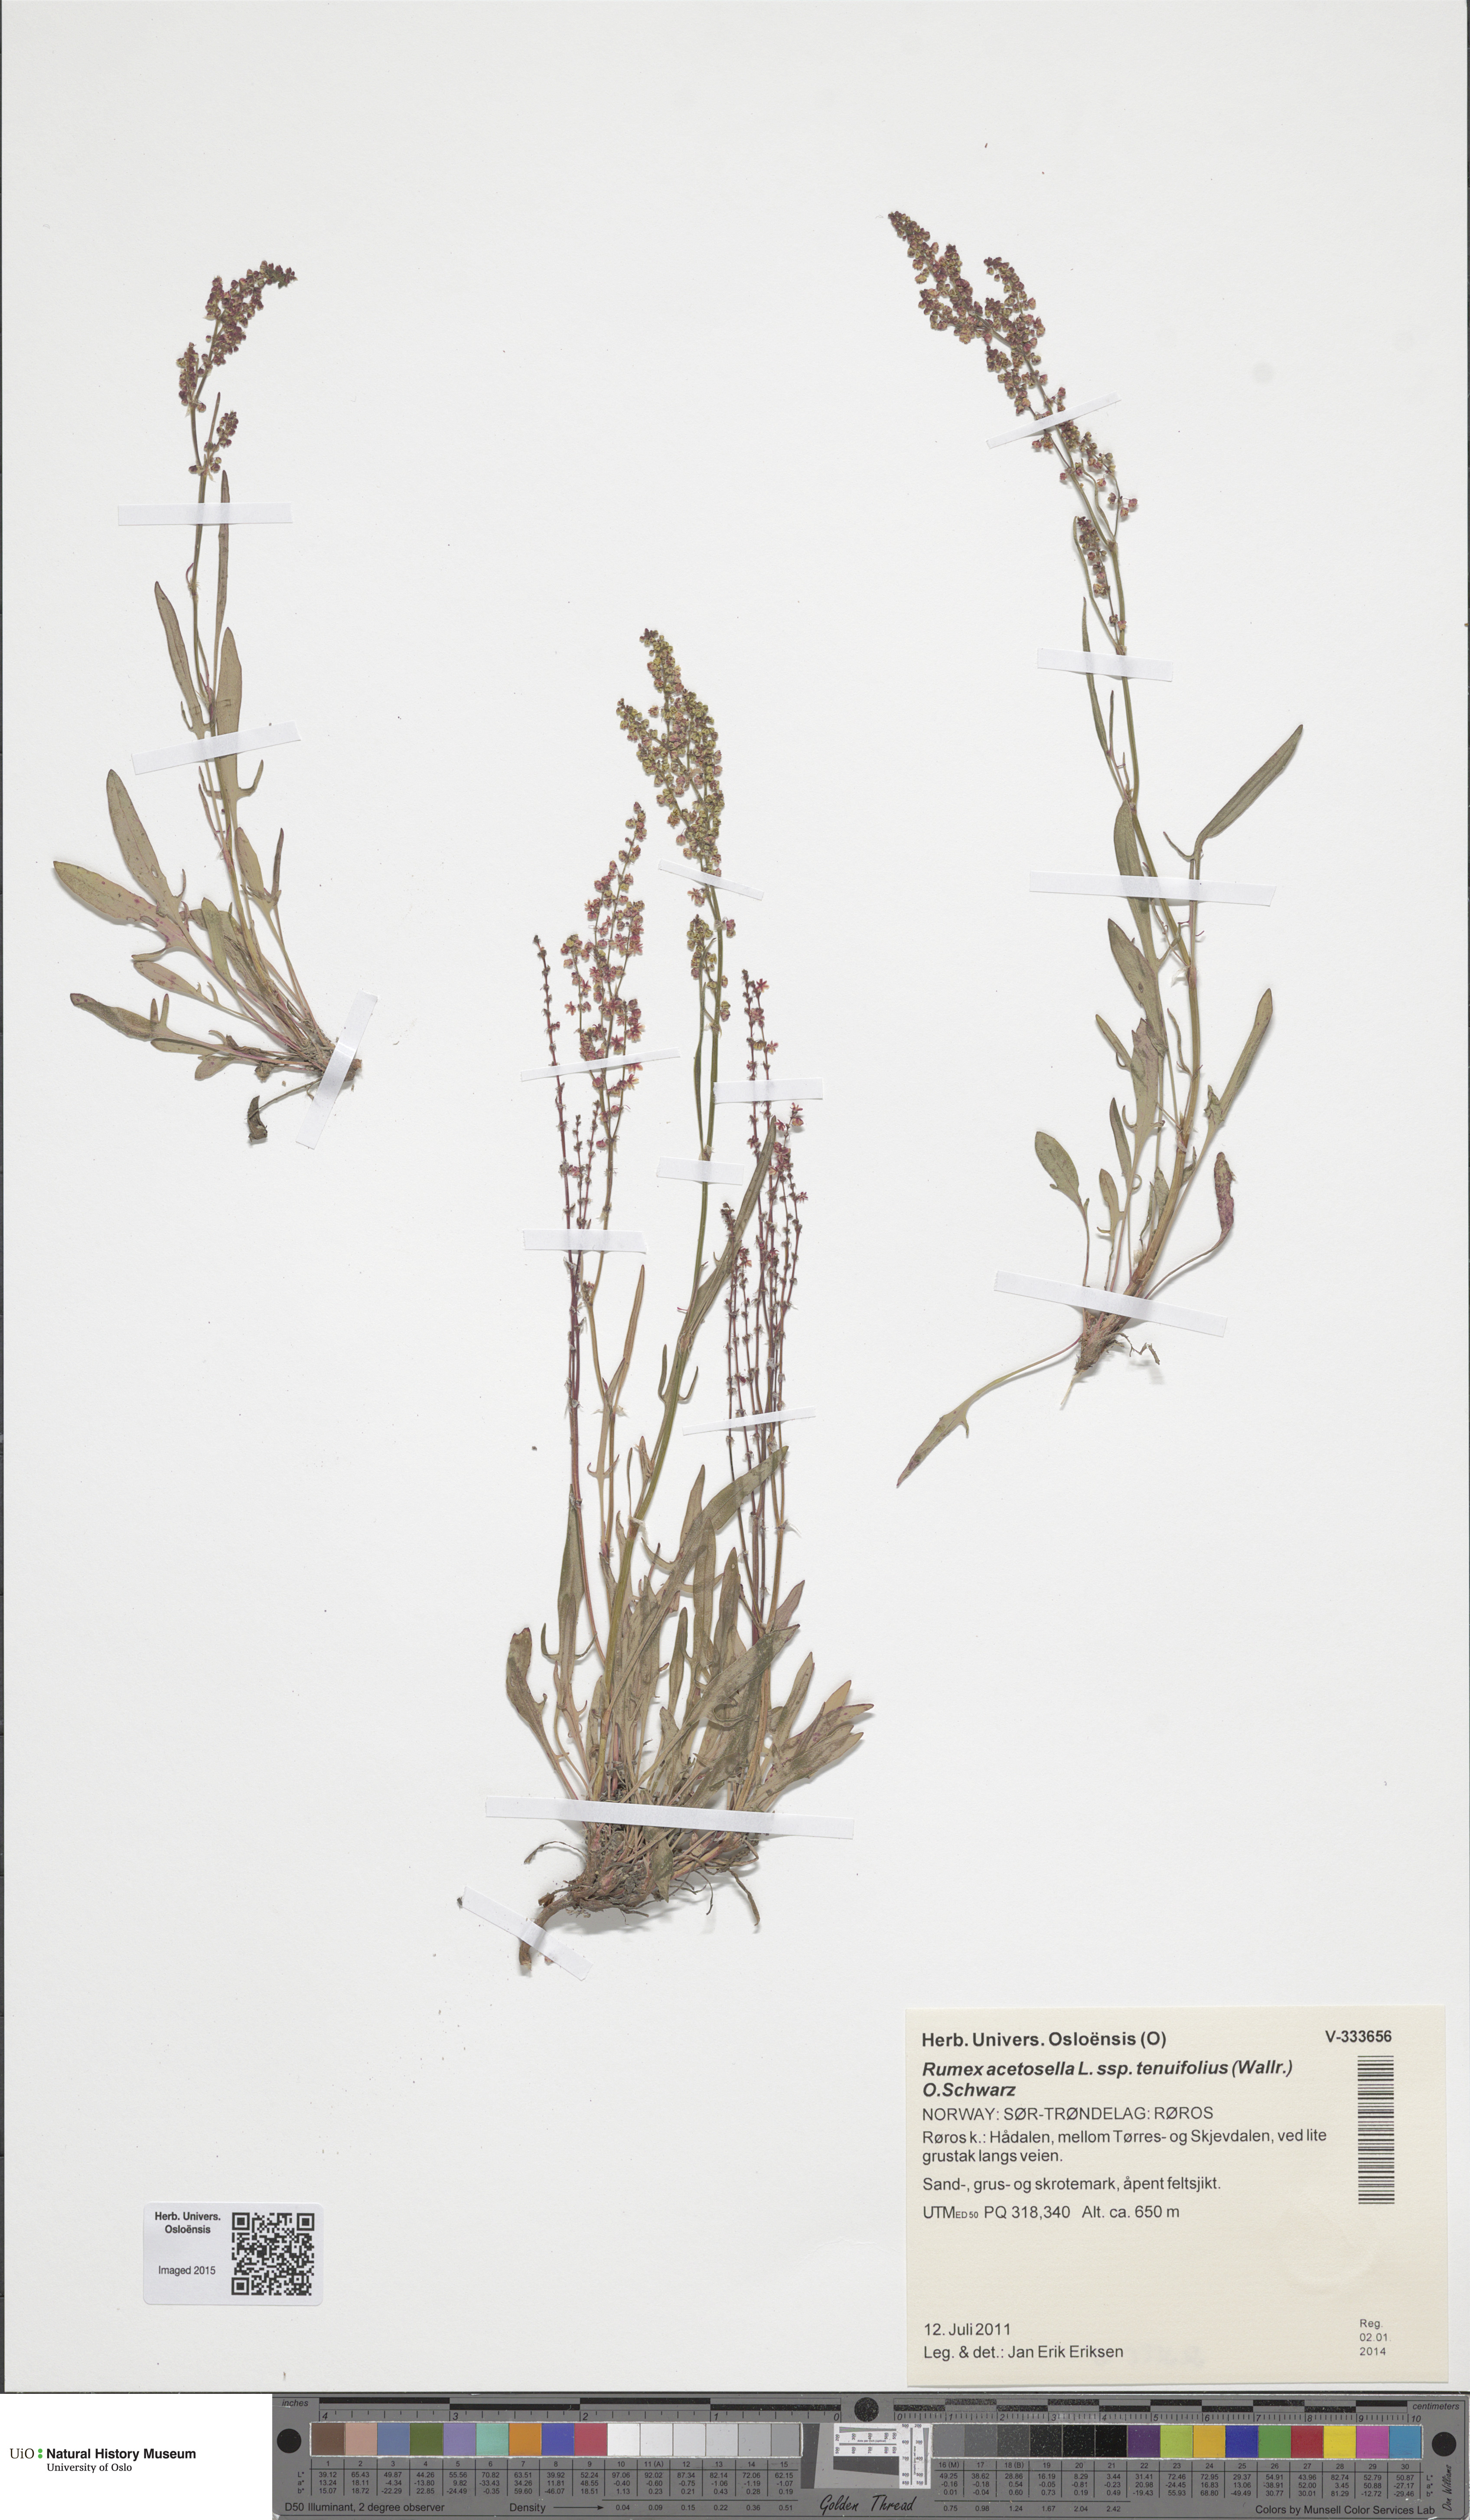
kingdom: Plantae
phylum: Tracheophyta
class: Magnoliopsida
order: Caryophyllales
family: Polygonaceae
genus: Rumex
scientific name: Rumex acetosella
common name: Common sheep sorrel
